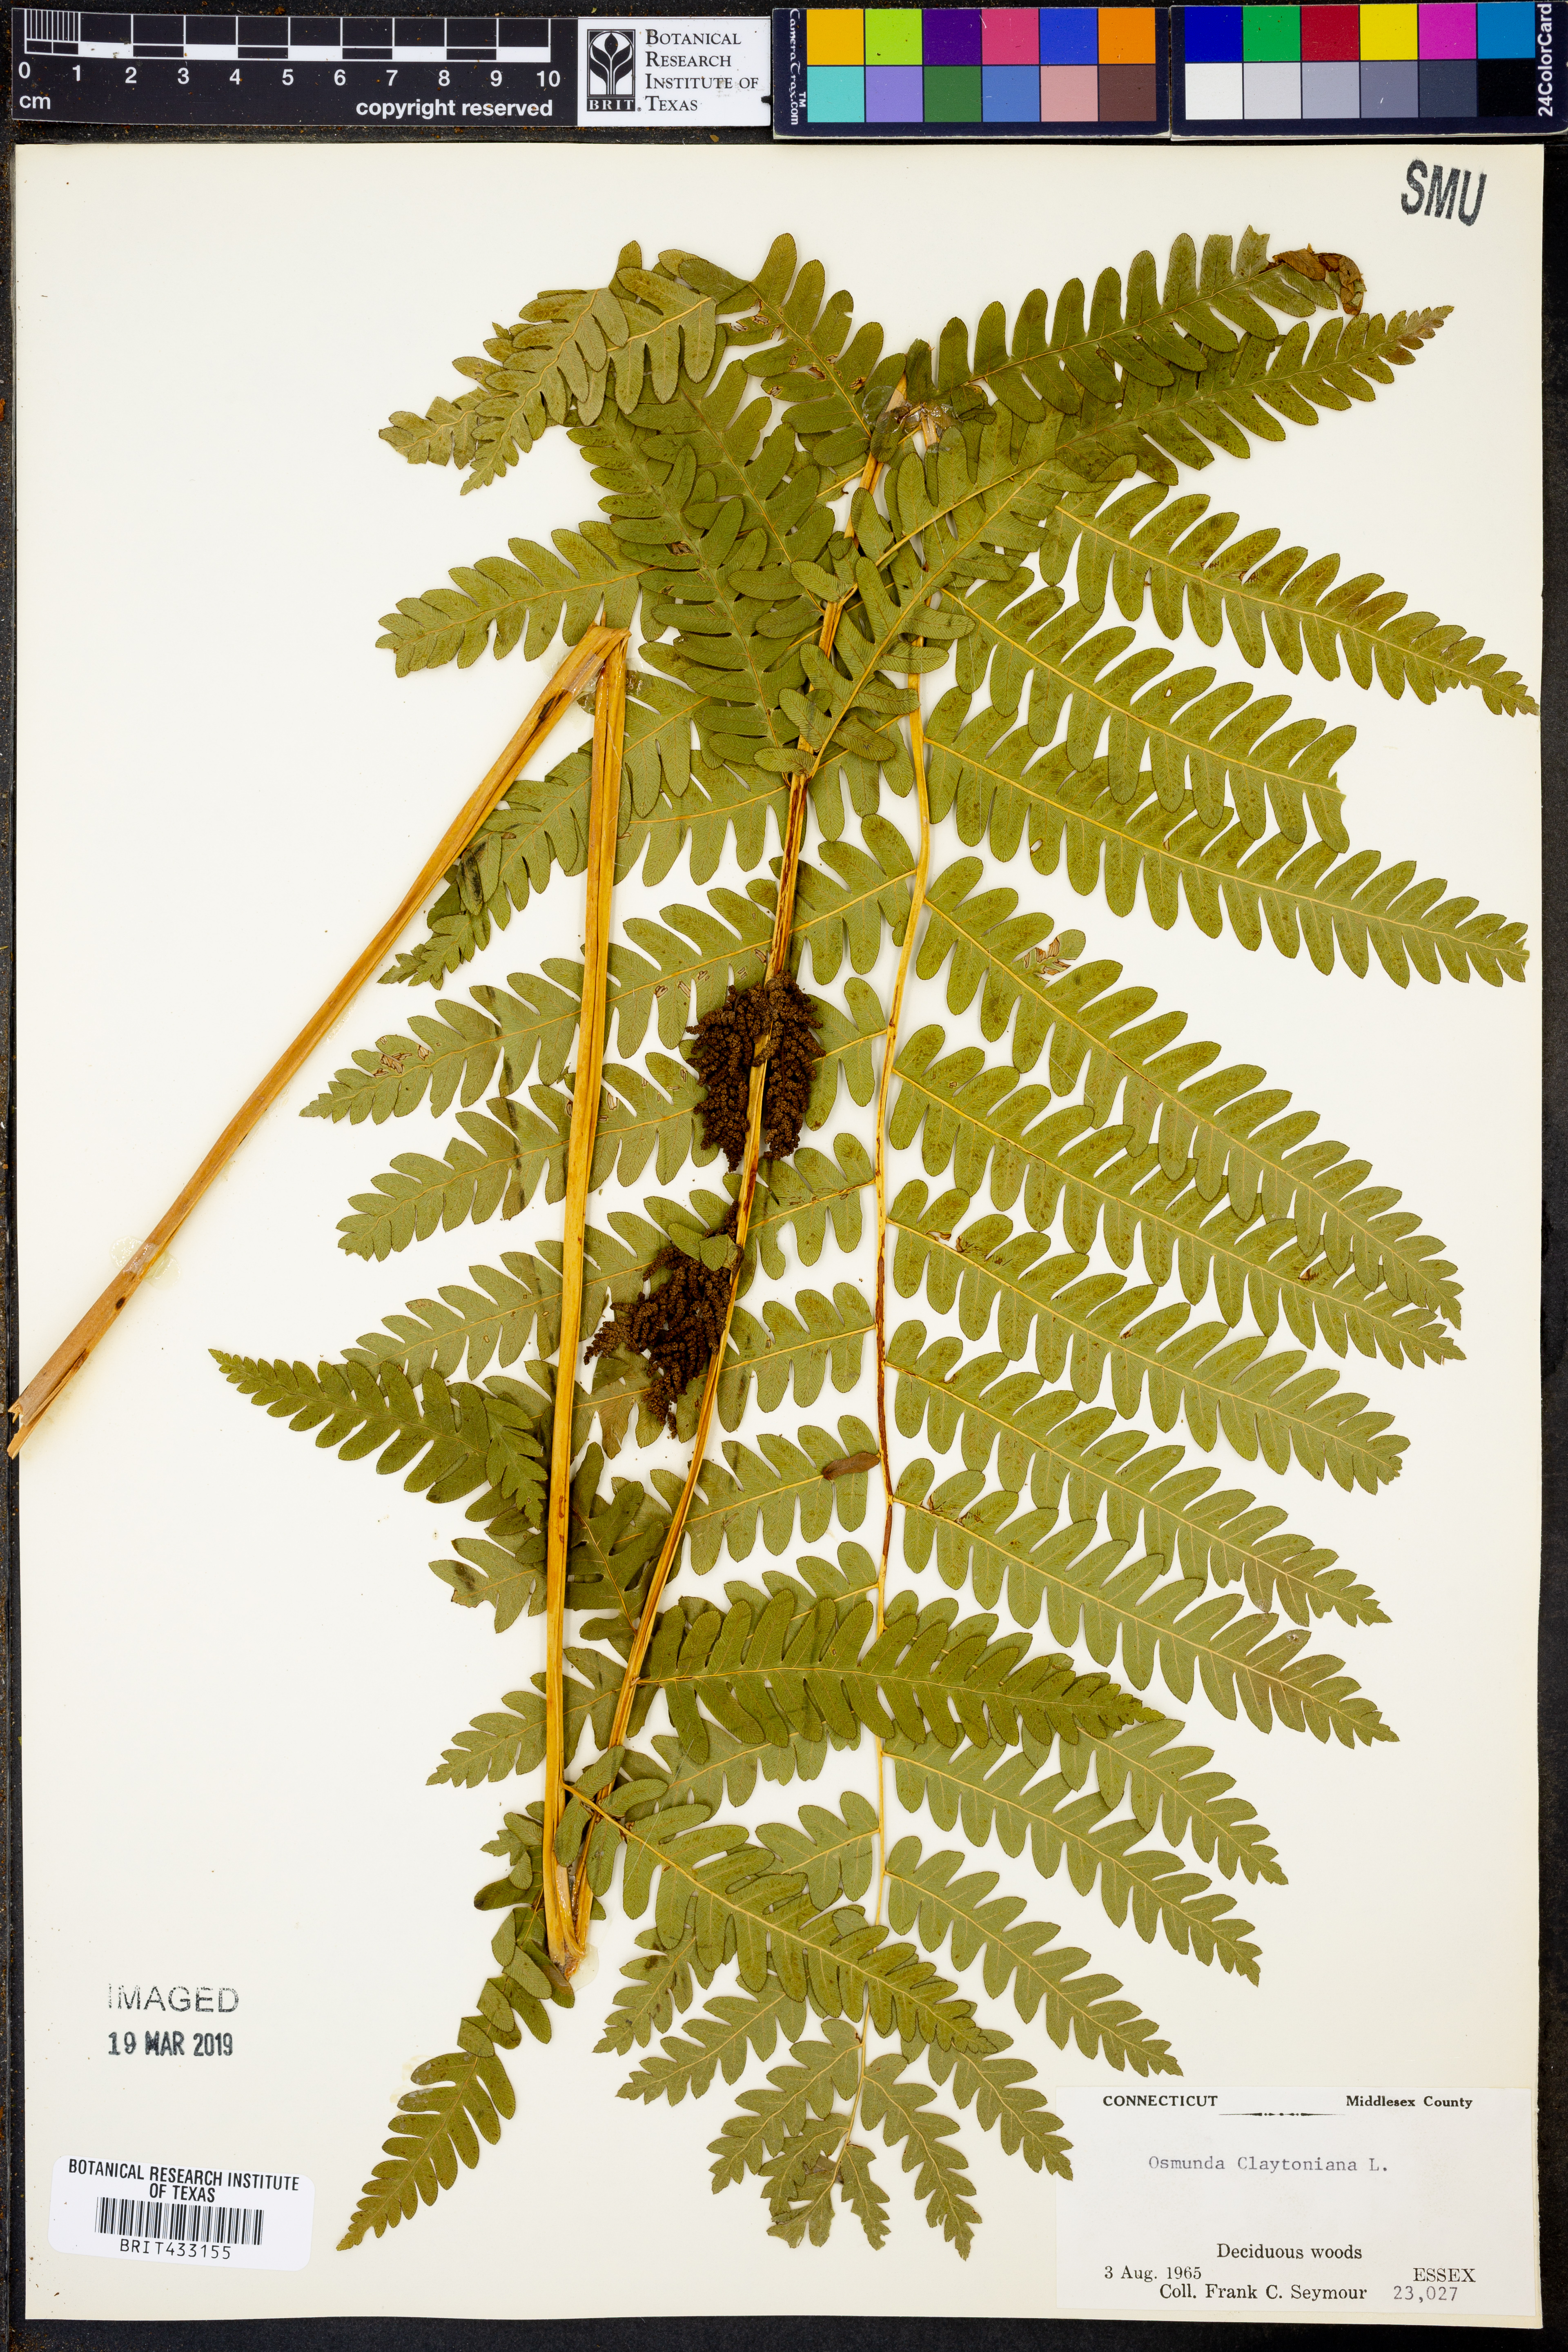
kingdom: Plantae
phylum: Tracheophyta
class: Polypodiopsida
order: Osmundales
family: Osmundaceae
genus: Claytosmunda
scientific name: Claytosmunda claytoniana
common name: Clayton's fern
